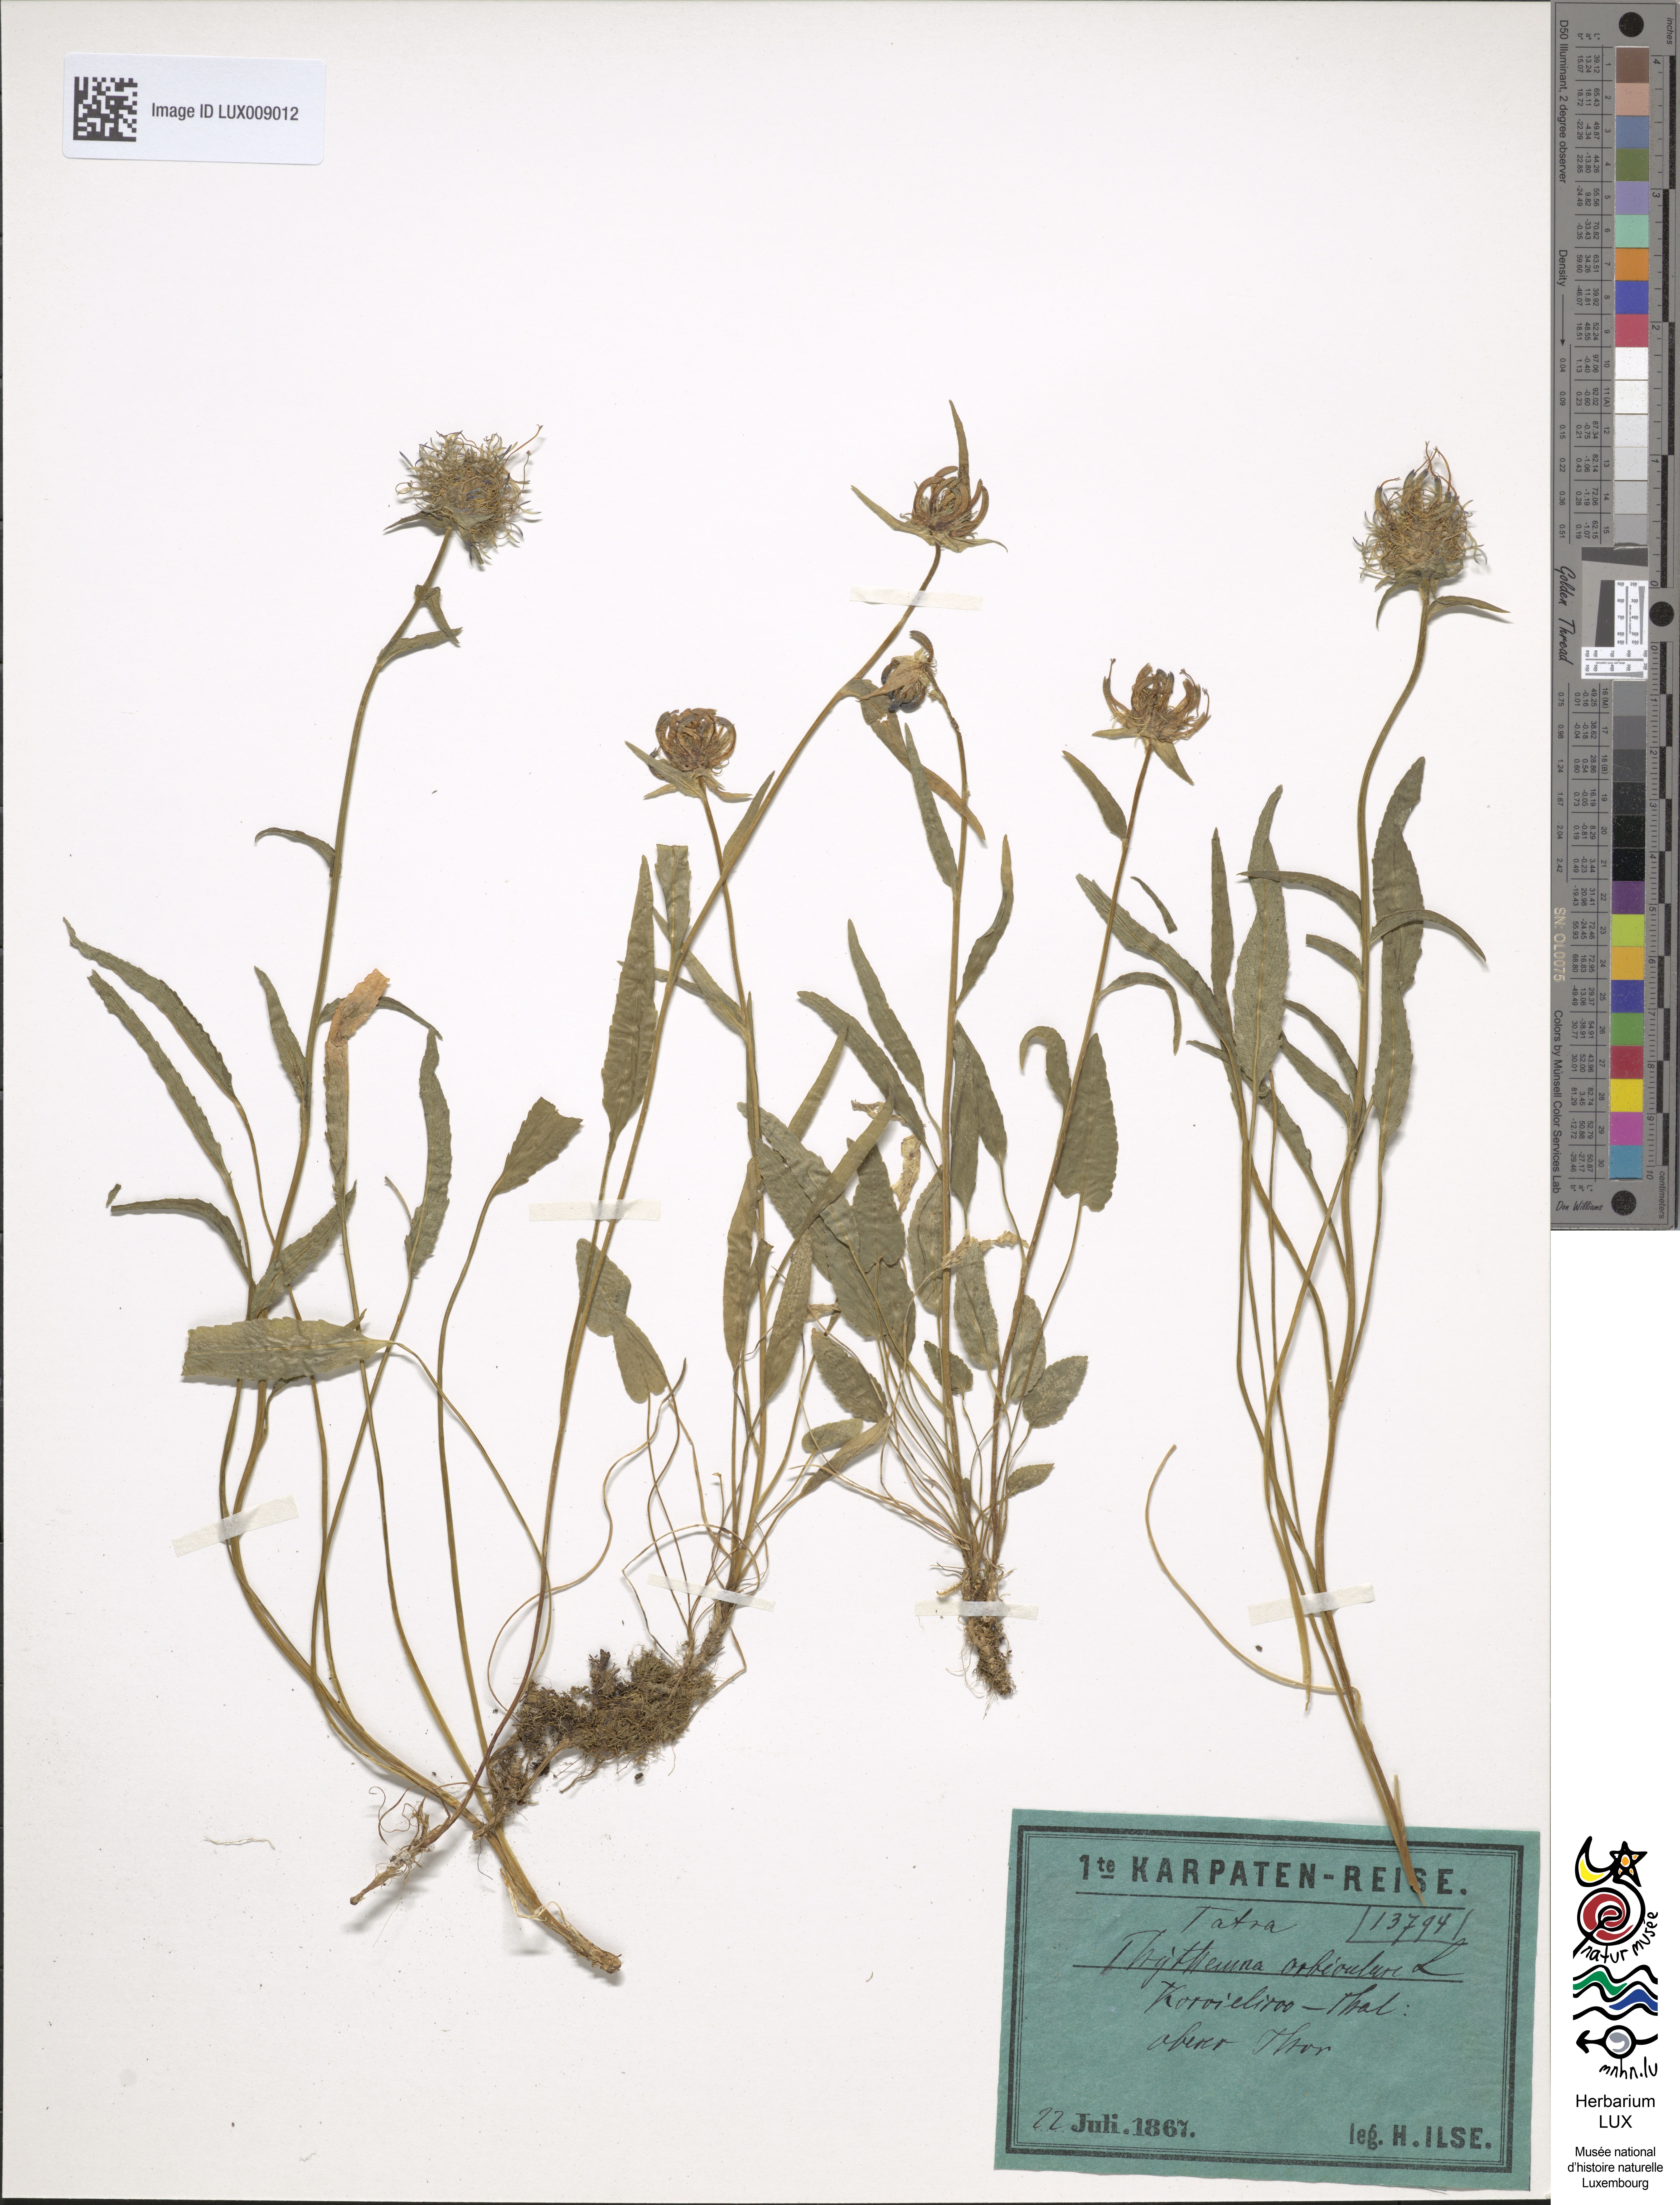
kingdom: Plantae
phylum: Tracheophyta
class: Magnoliopsida
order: Asterales
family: Campanulaceae
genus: Phyteuma
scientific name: Phyteuma orbiculare
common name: Round-headed rampion
